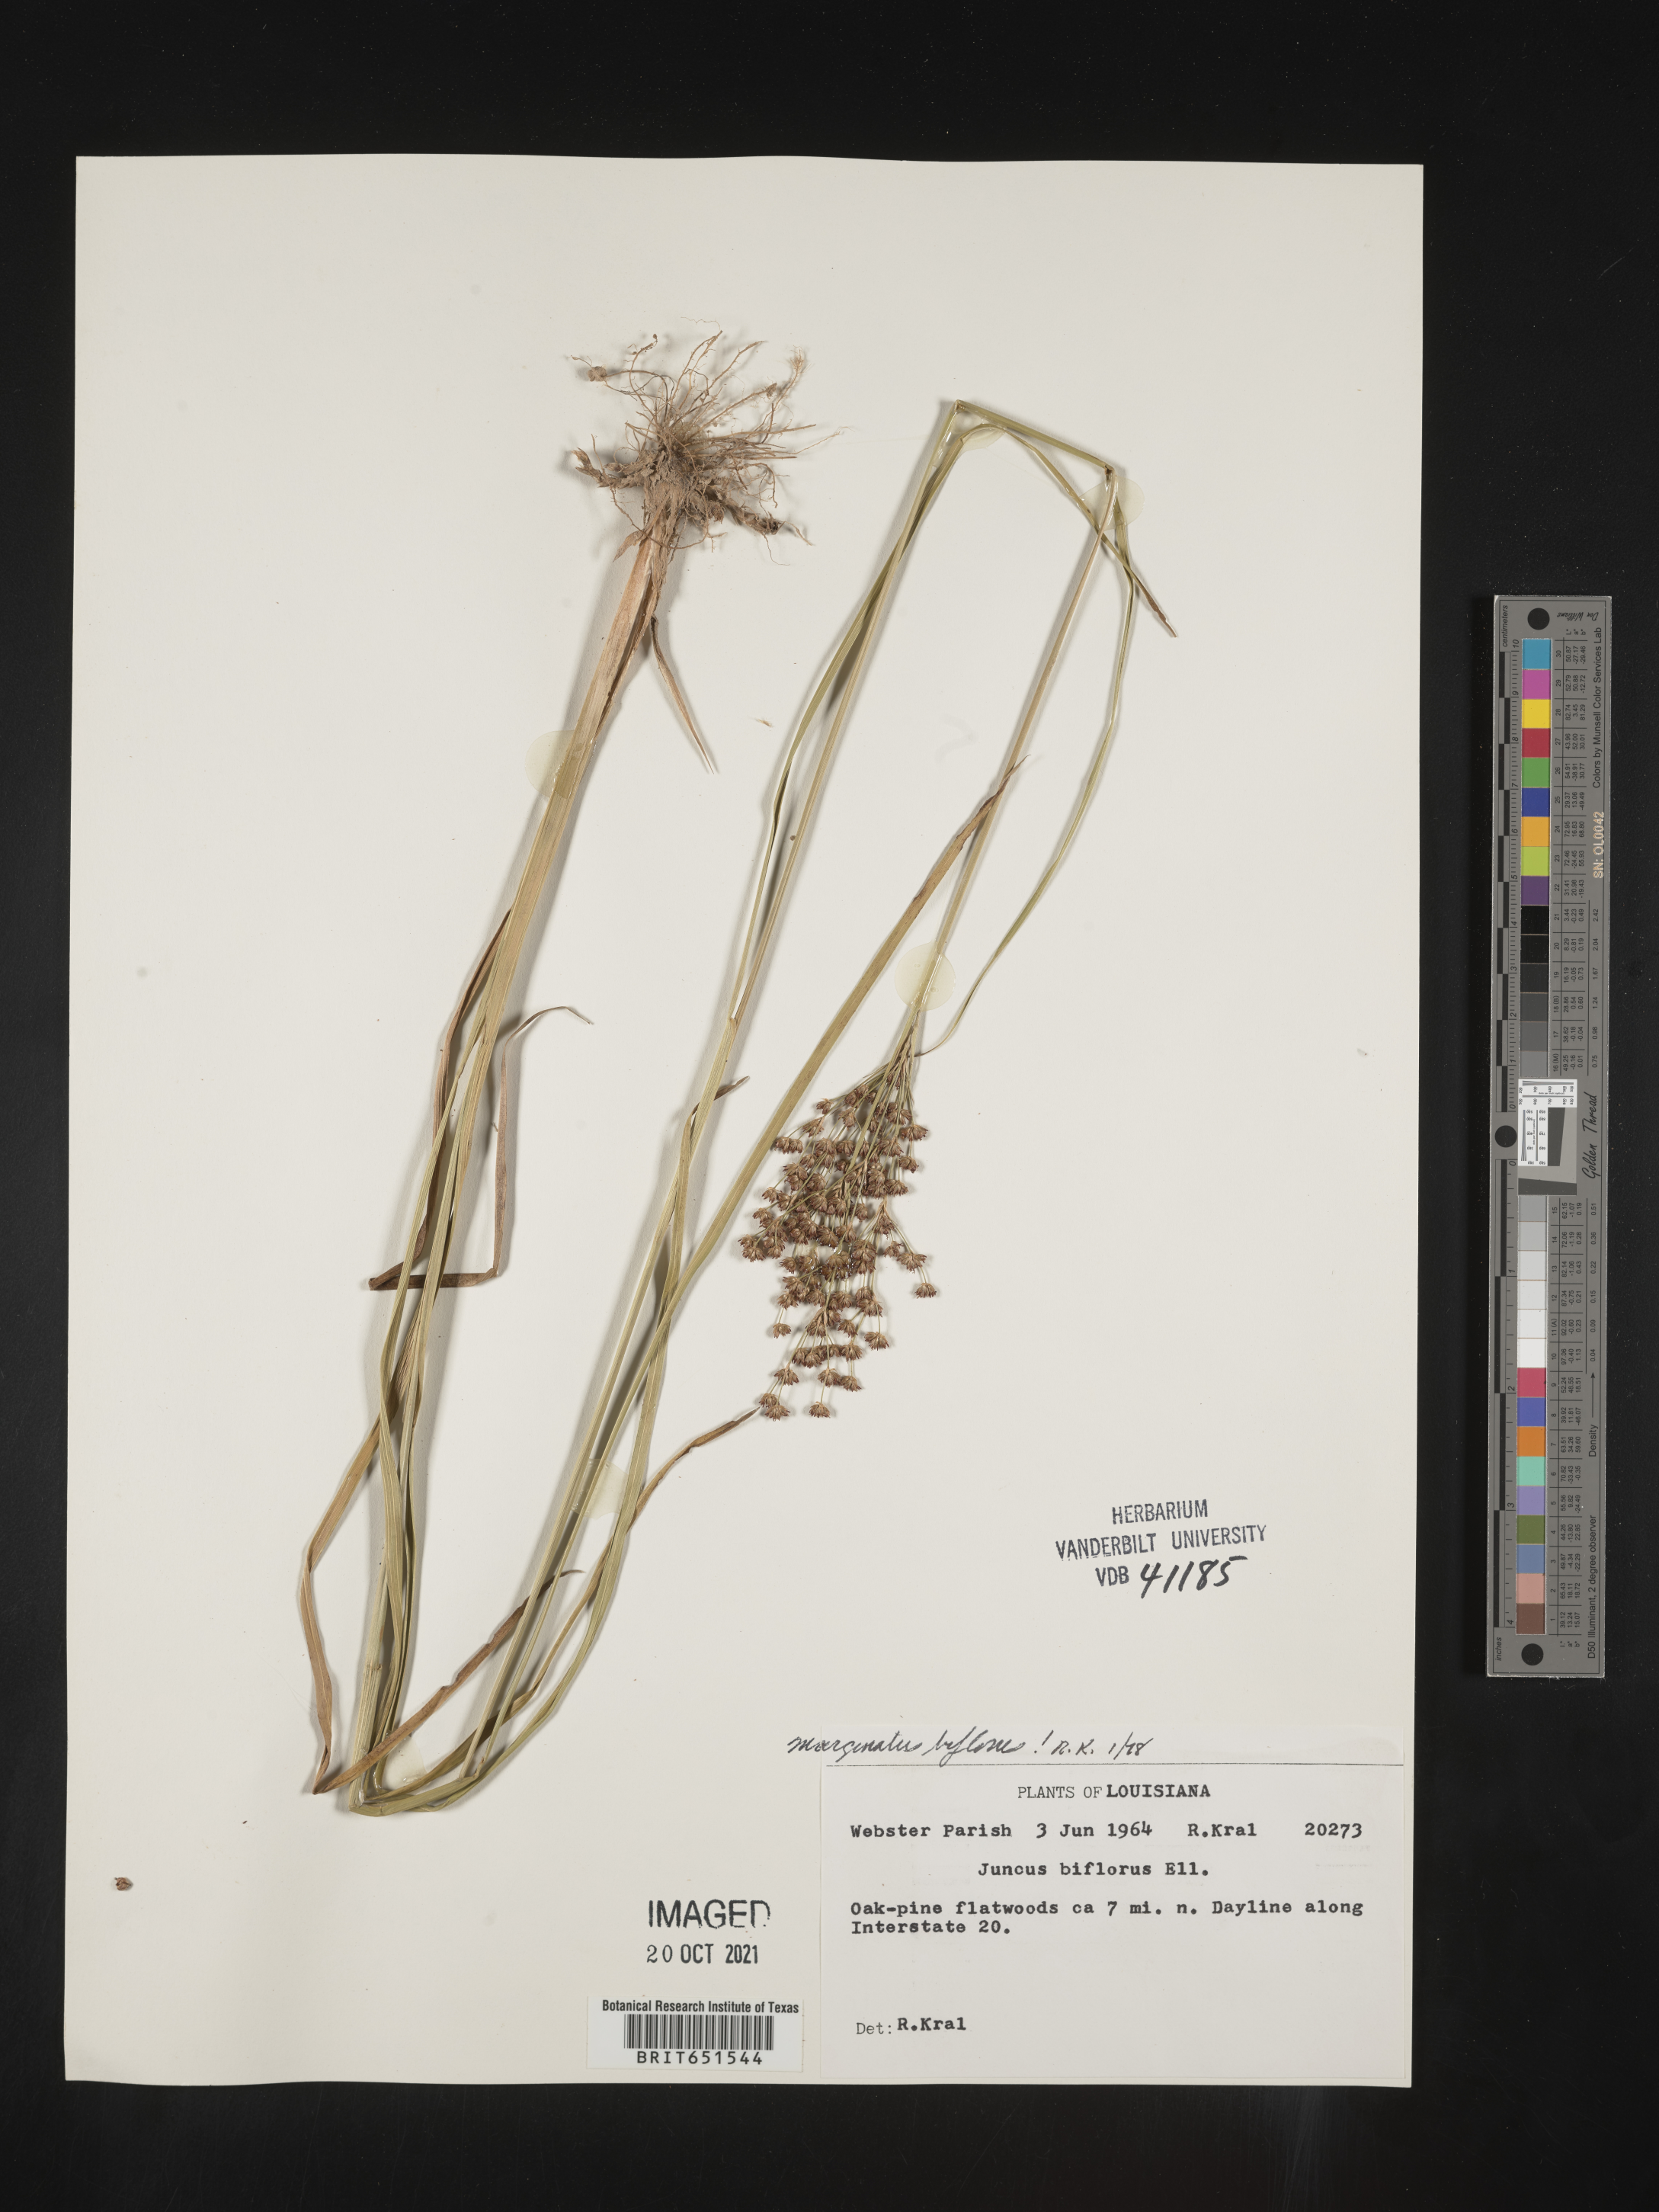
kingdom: Plantae
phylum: Tracheophyta
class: Liliopsida
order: Poales
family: Juncaceae
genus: Juncus
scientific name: Juncus biflorus
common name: Two-flowered rush
